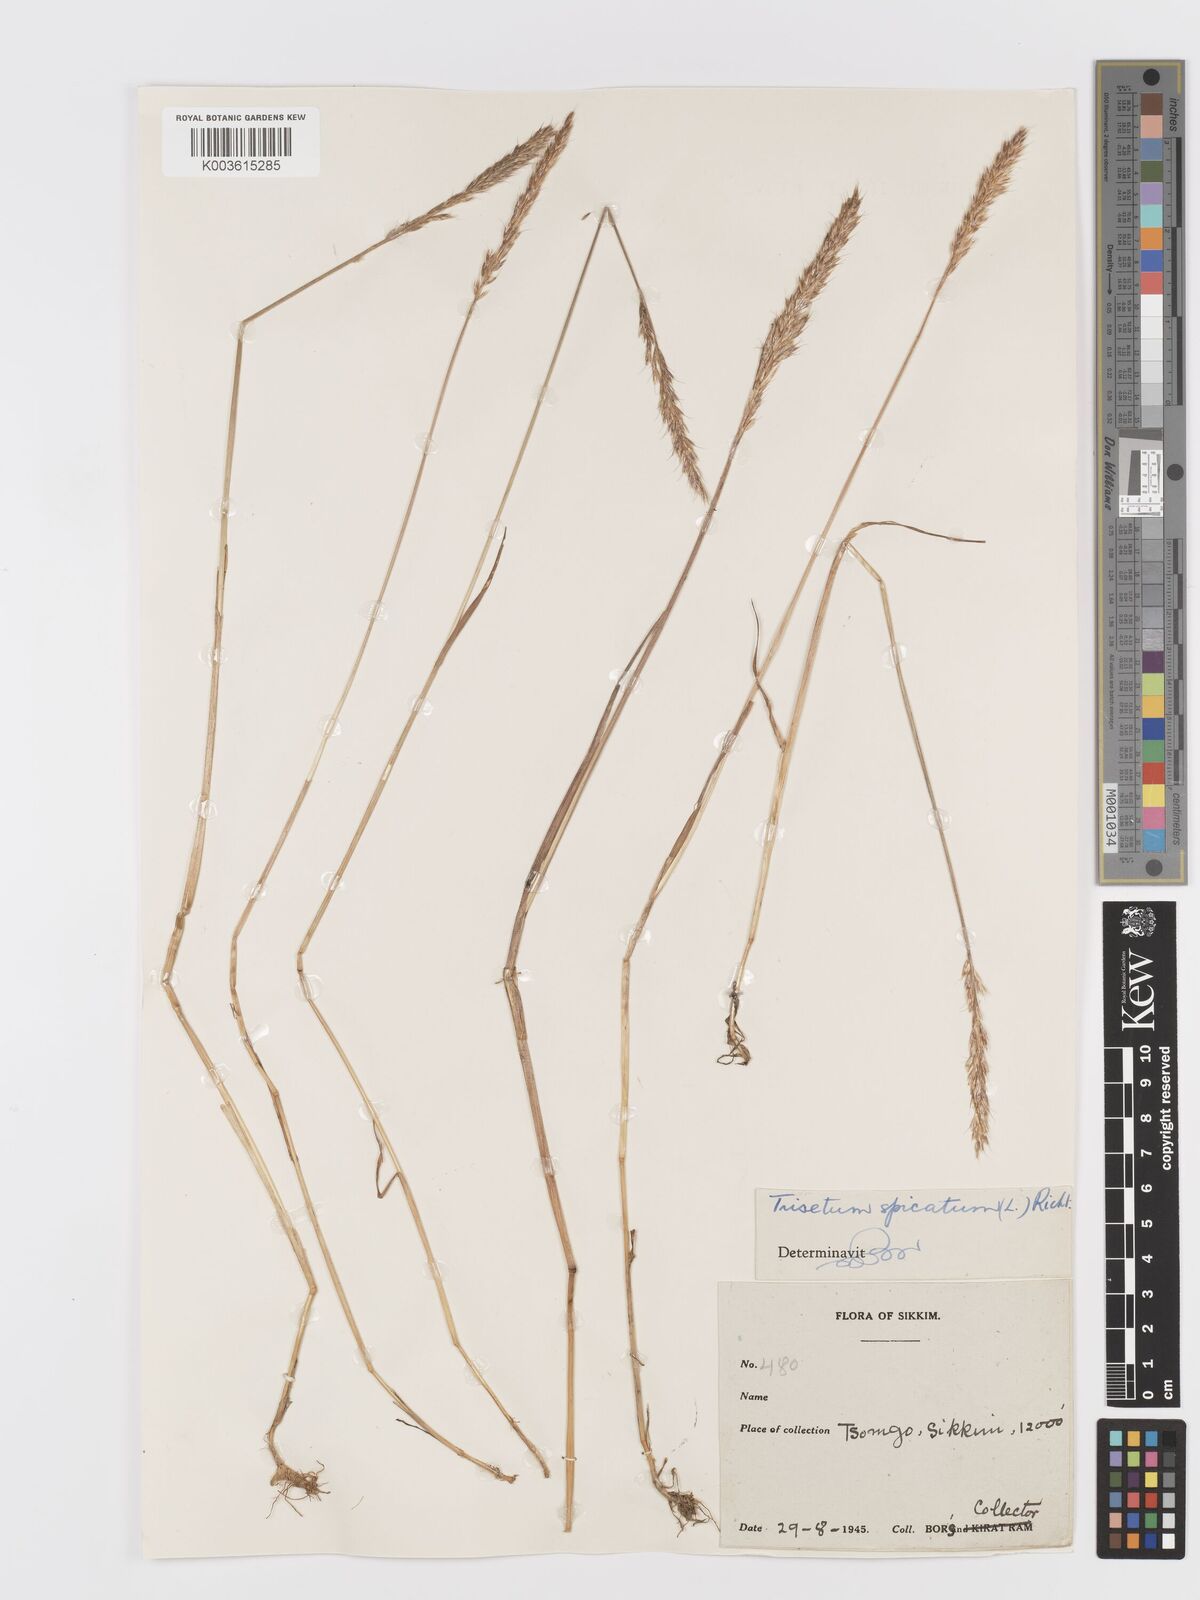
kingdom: Plantae
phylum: Tracheophyta
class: Liliopsida
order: Poales
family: Poaceae
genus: Koeleria
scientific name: Koeleria spicata
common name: Mountain trisetum
